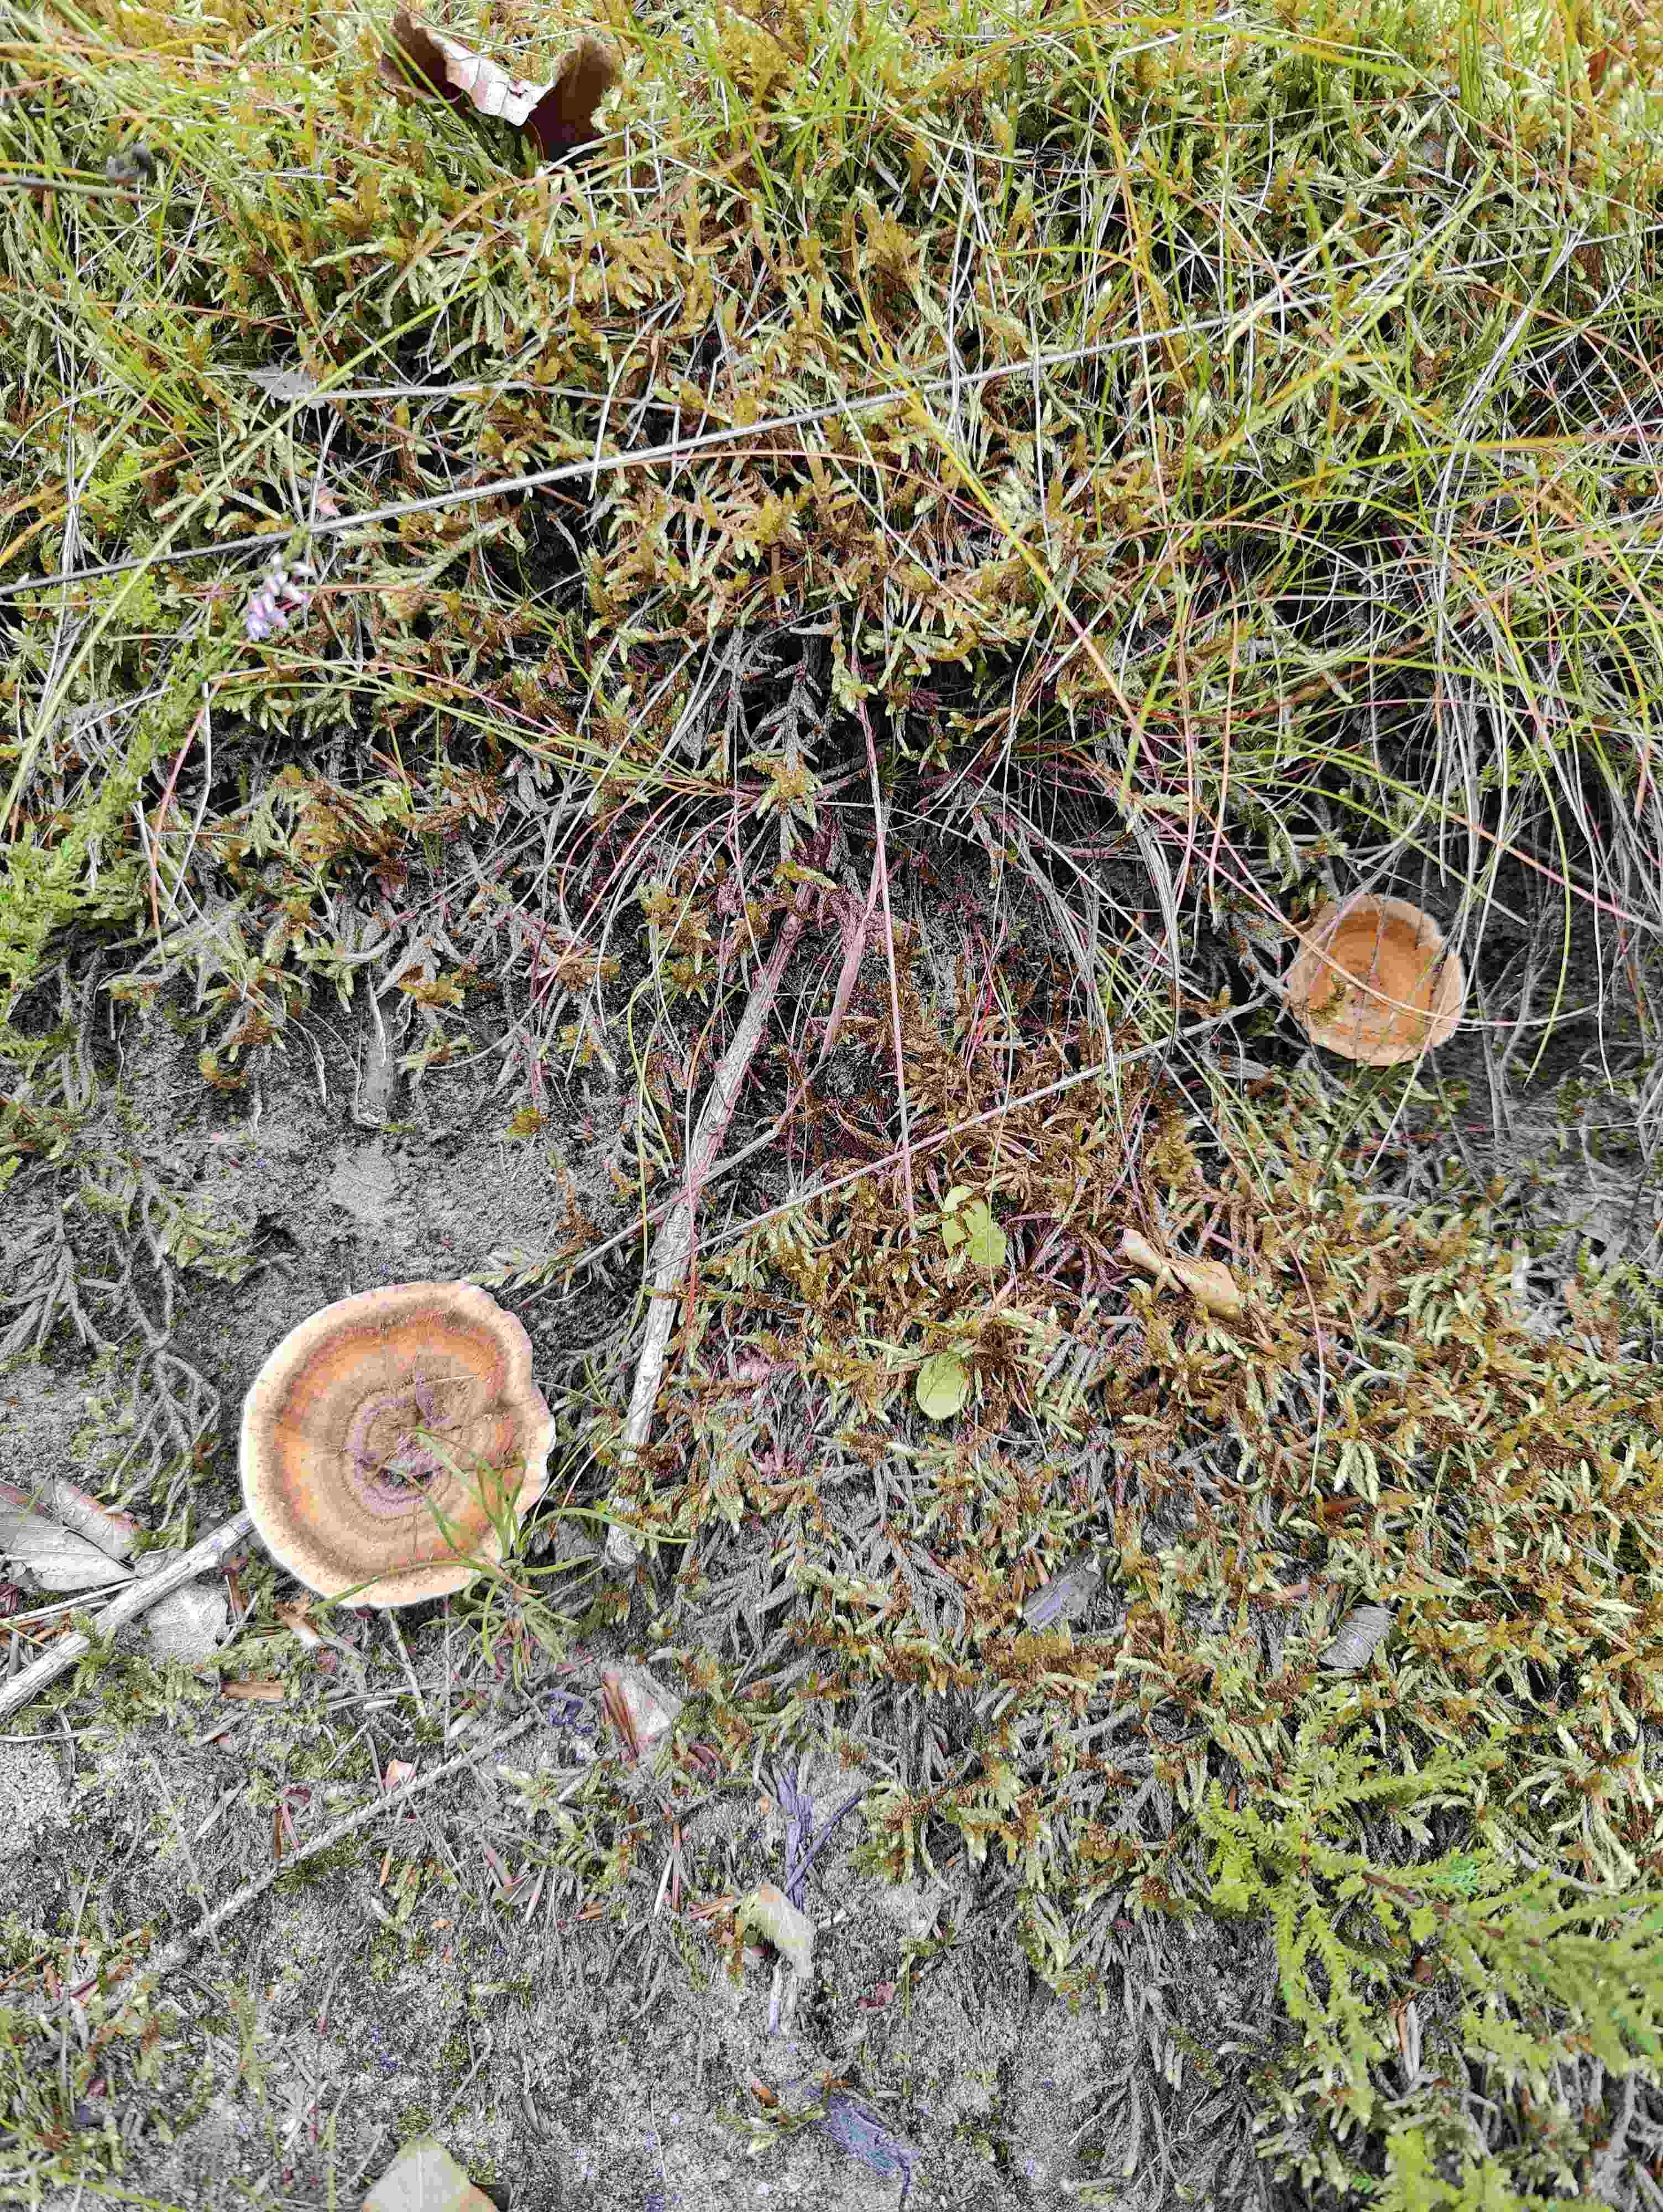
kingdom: Fungi
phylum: Basidiomycota
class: Agaricomycetes
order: Hymenochaetales
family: Hymenochaetaceae
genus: Coltricia
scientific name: Coltricia perennis
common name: almindelig sandporesvamp
